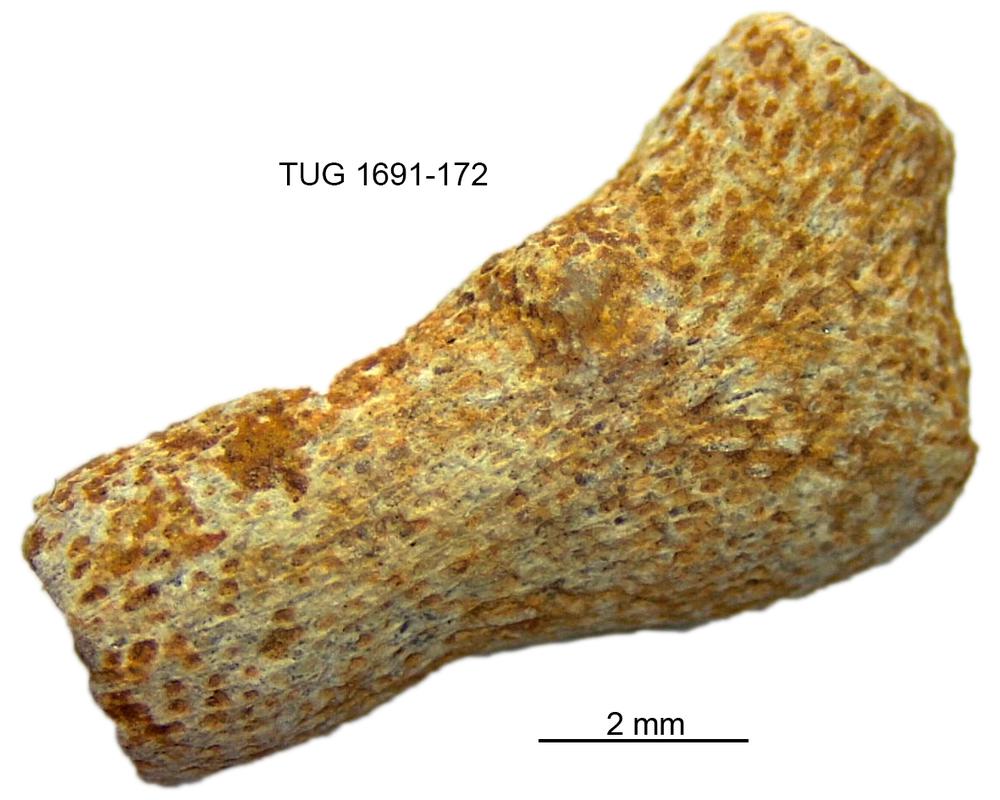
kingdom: Animalia
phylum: Bryozoa
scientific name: Bryozoa
